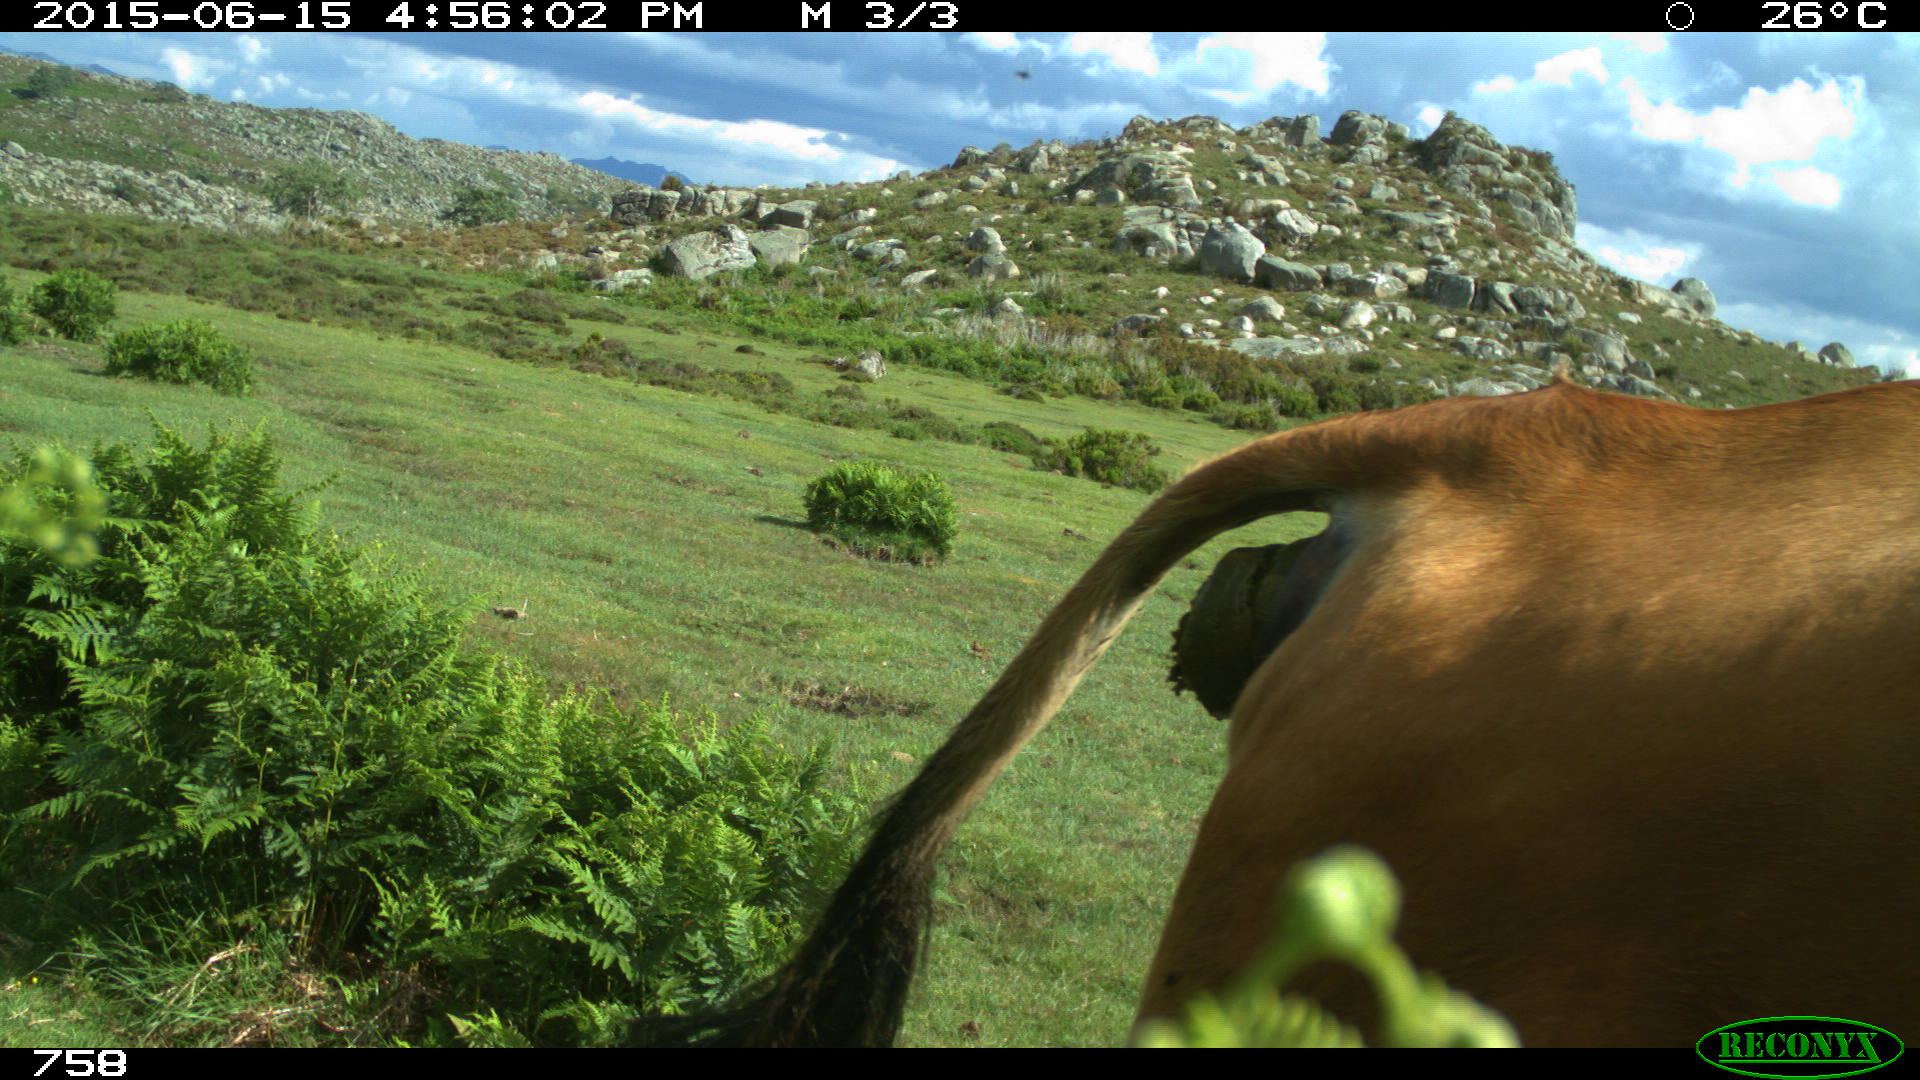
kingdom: Animalia
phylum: Chordata
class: Mammalia
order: Artiodactyla
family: Bovidae
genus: Bos
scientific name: Bos taurus
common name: Domesticated cattle
